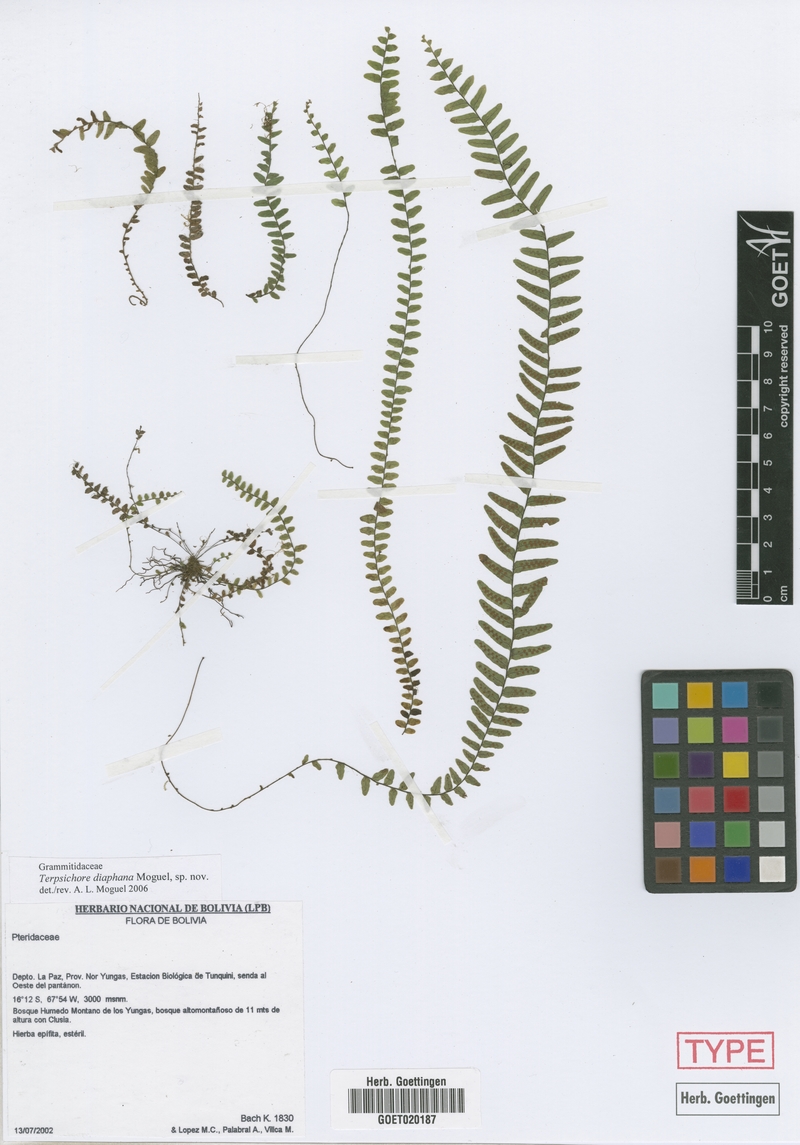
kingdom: Plantae
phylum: Tracheophyta
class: Polypodiopsida
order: Polypodiales
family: Polypodiaceae
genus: Alansmia
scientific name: Alansmia diaphana
